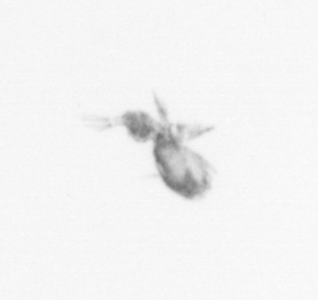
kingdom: Animalia
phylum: Arthropoda
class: Copepoda
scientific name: Copepoda
